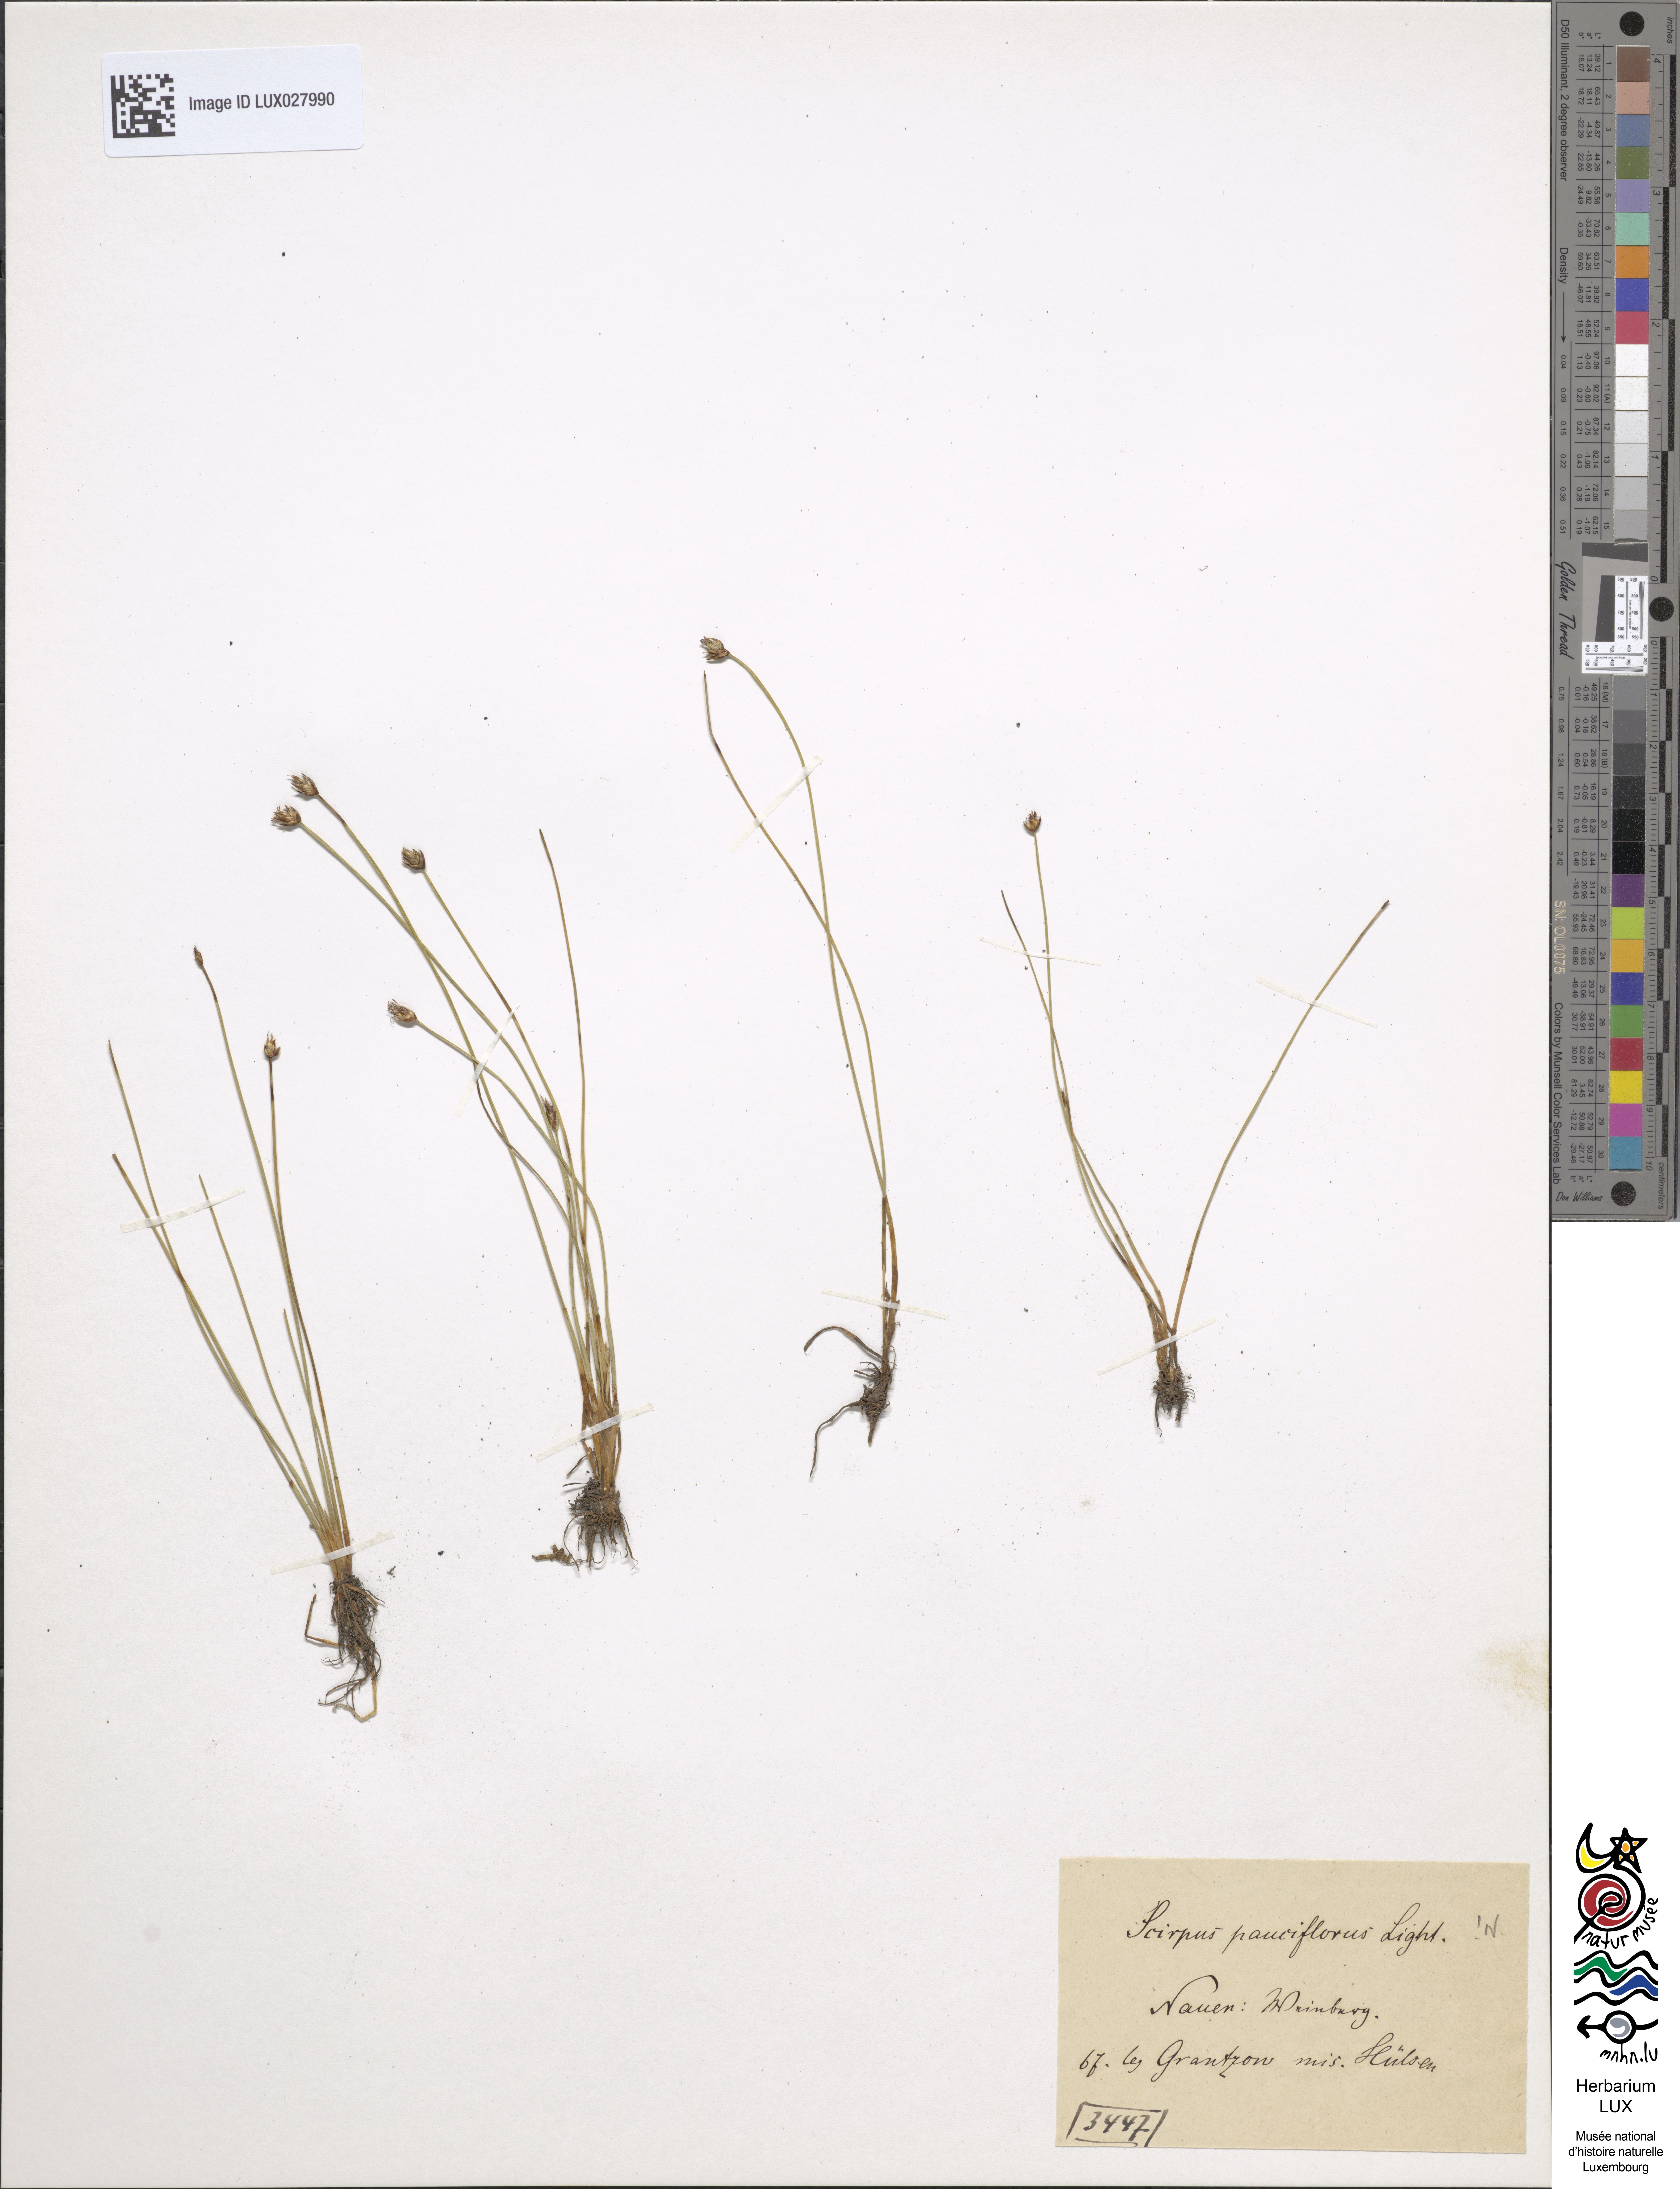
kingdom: Plantae
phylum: Tracheophyta
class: Liliopsida
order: Poales
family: Cyperaceae
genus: Eleocharis
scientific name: Eleocharis quinqueflora
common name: Few-flowered spike-rush
